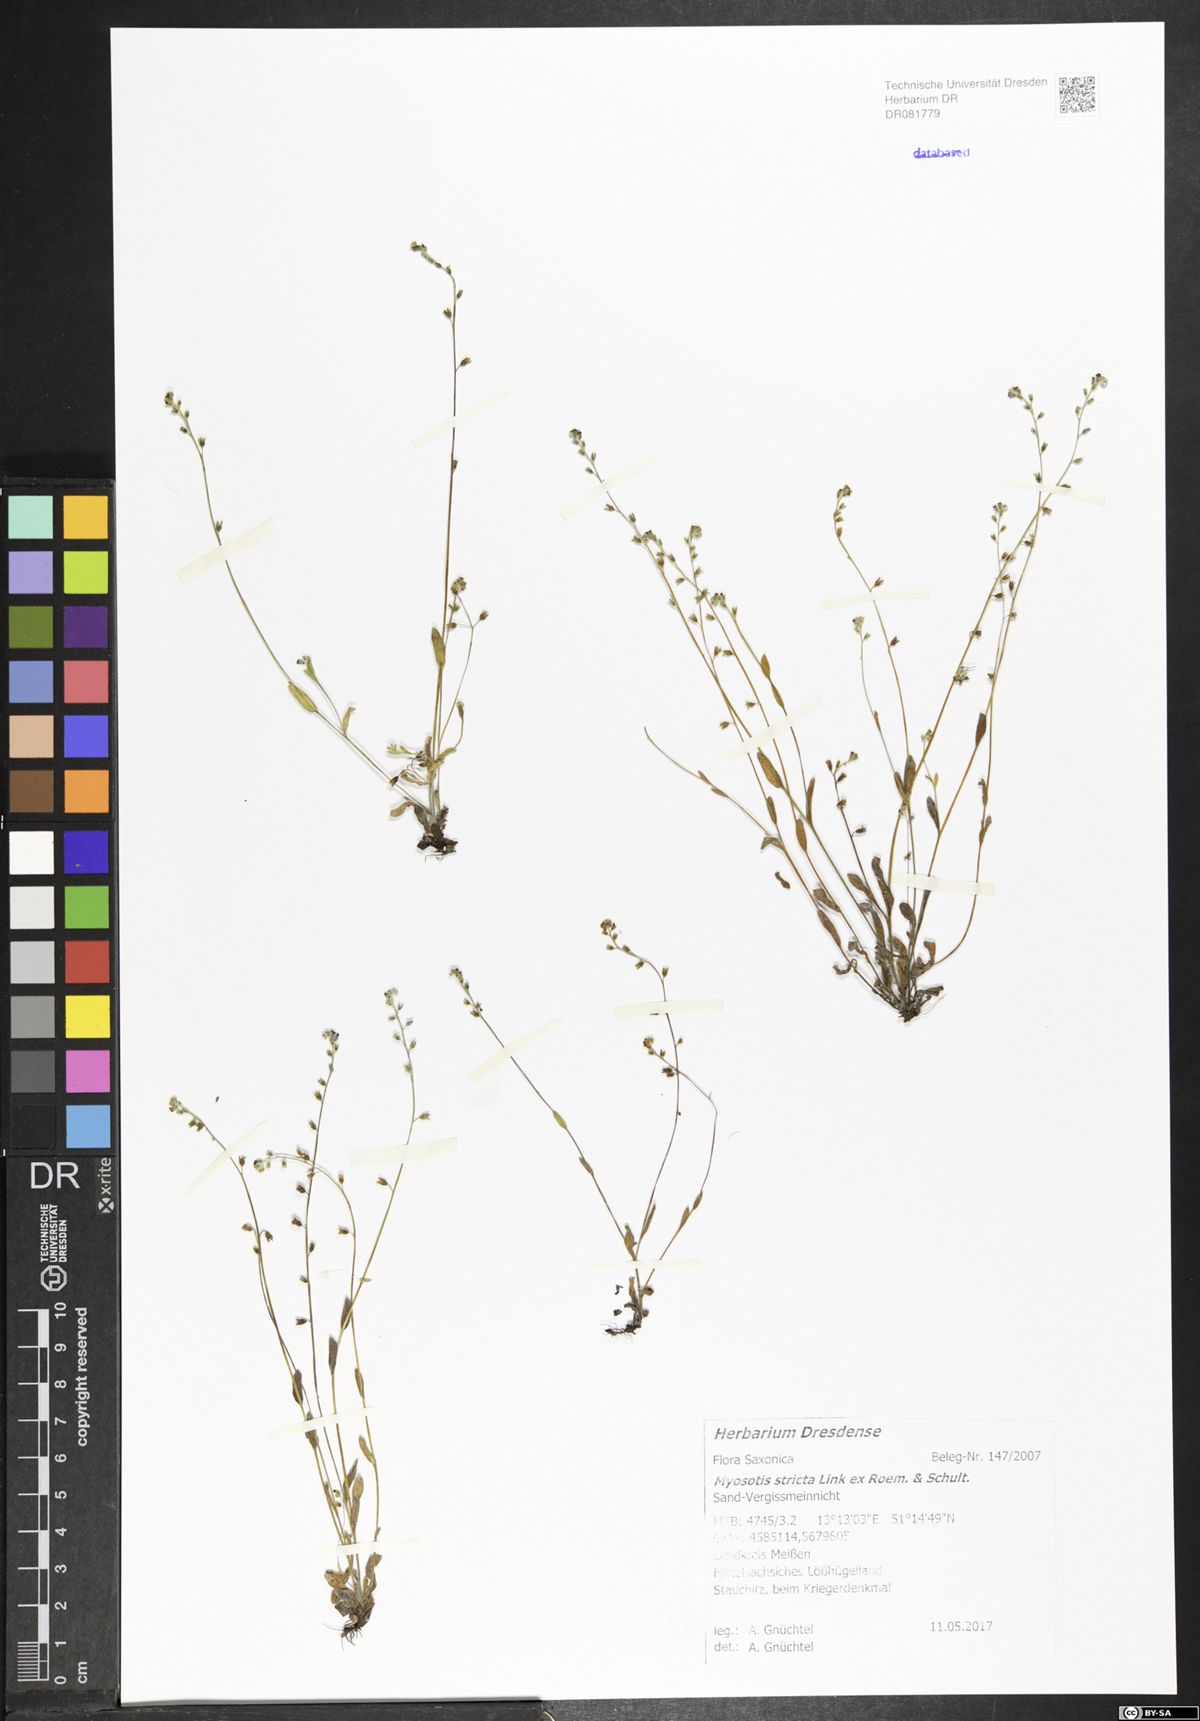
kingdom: Plantae
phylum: Tracheophyta
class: Magnoliopsida
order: Boraginales
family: Boraginaceae
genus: Myosotis
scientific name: Myosotis stricta
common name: Strict forget-me-not
